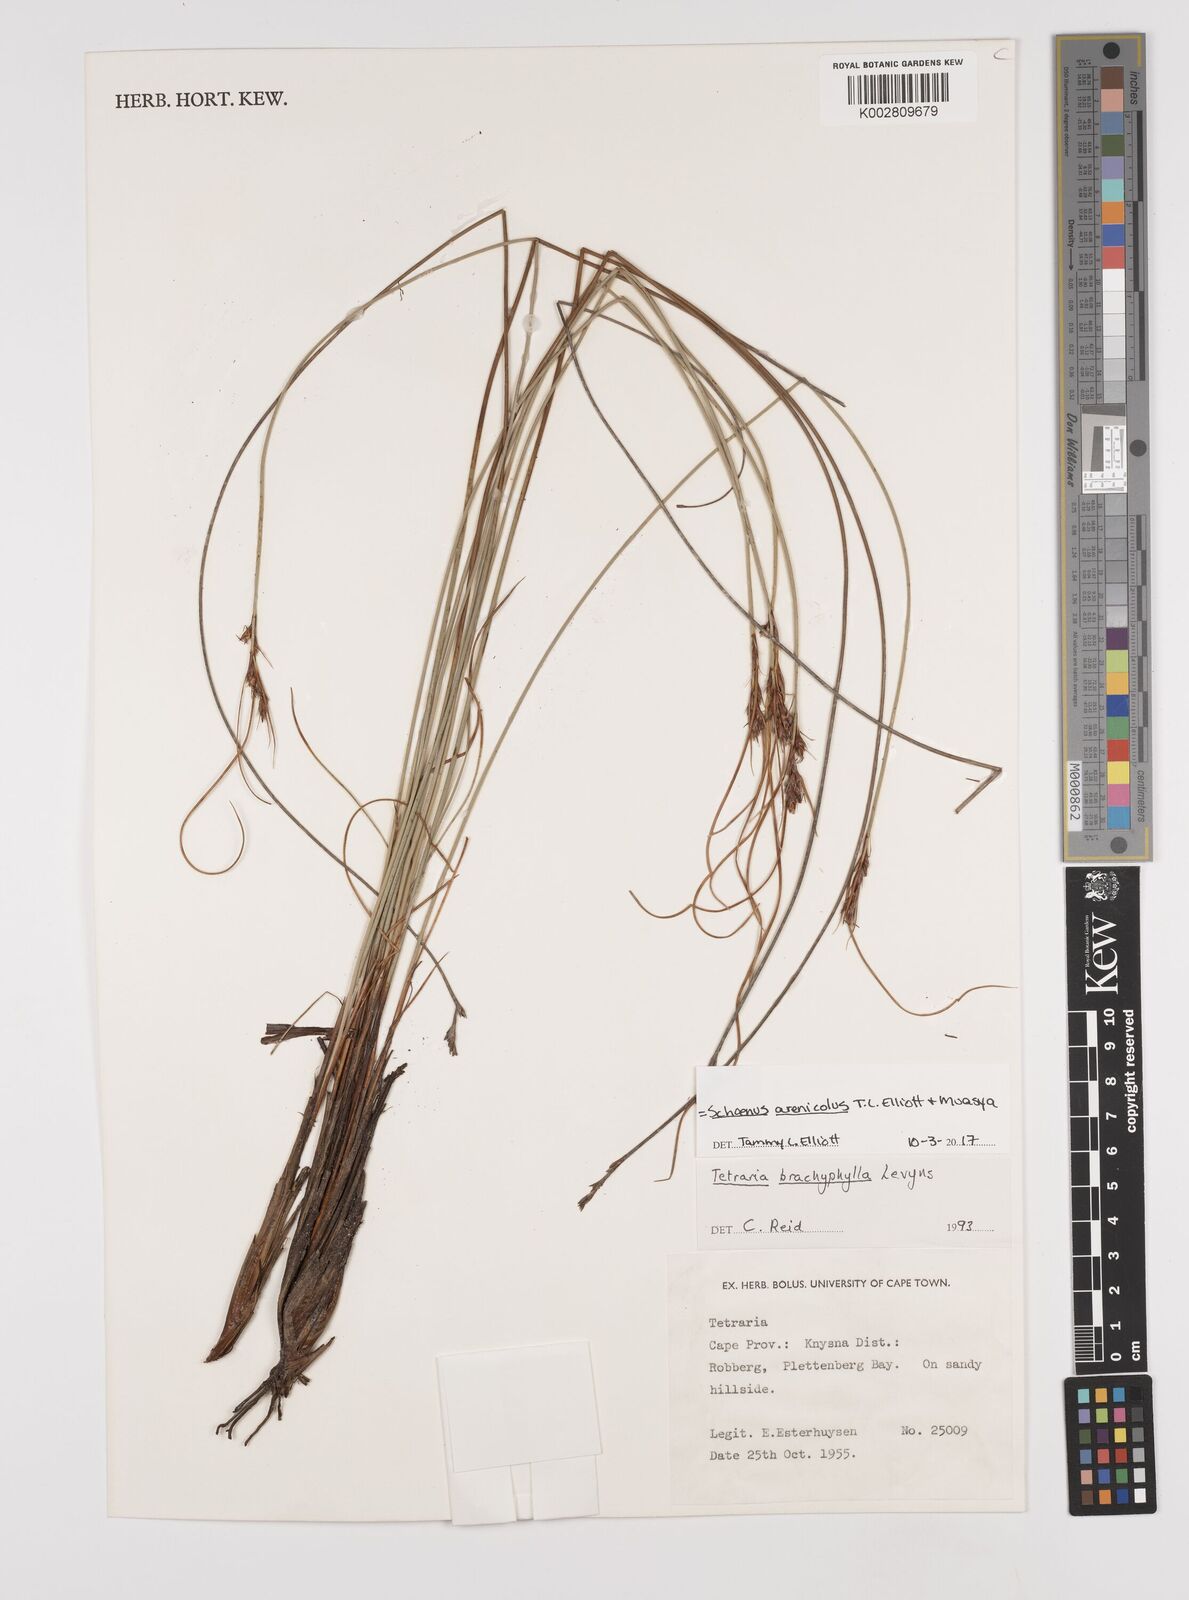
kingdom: Plantae
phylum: Tracheophyta
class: Liliopsida
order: Poales
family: Cyperaceae
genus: Schoenus
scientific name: Schoenus arenicola
